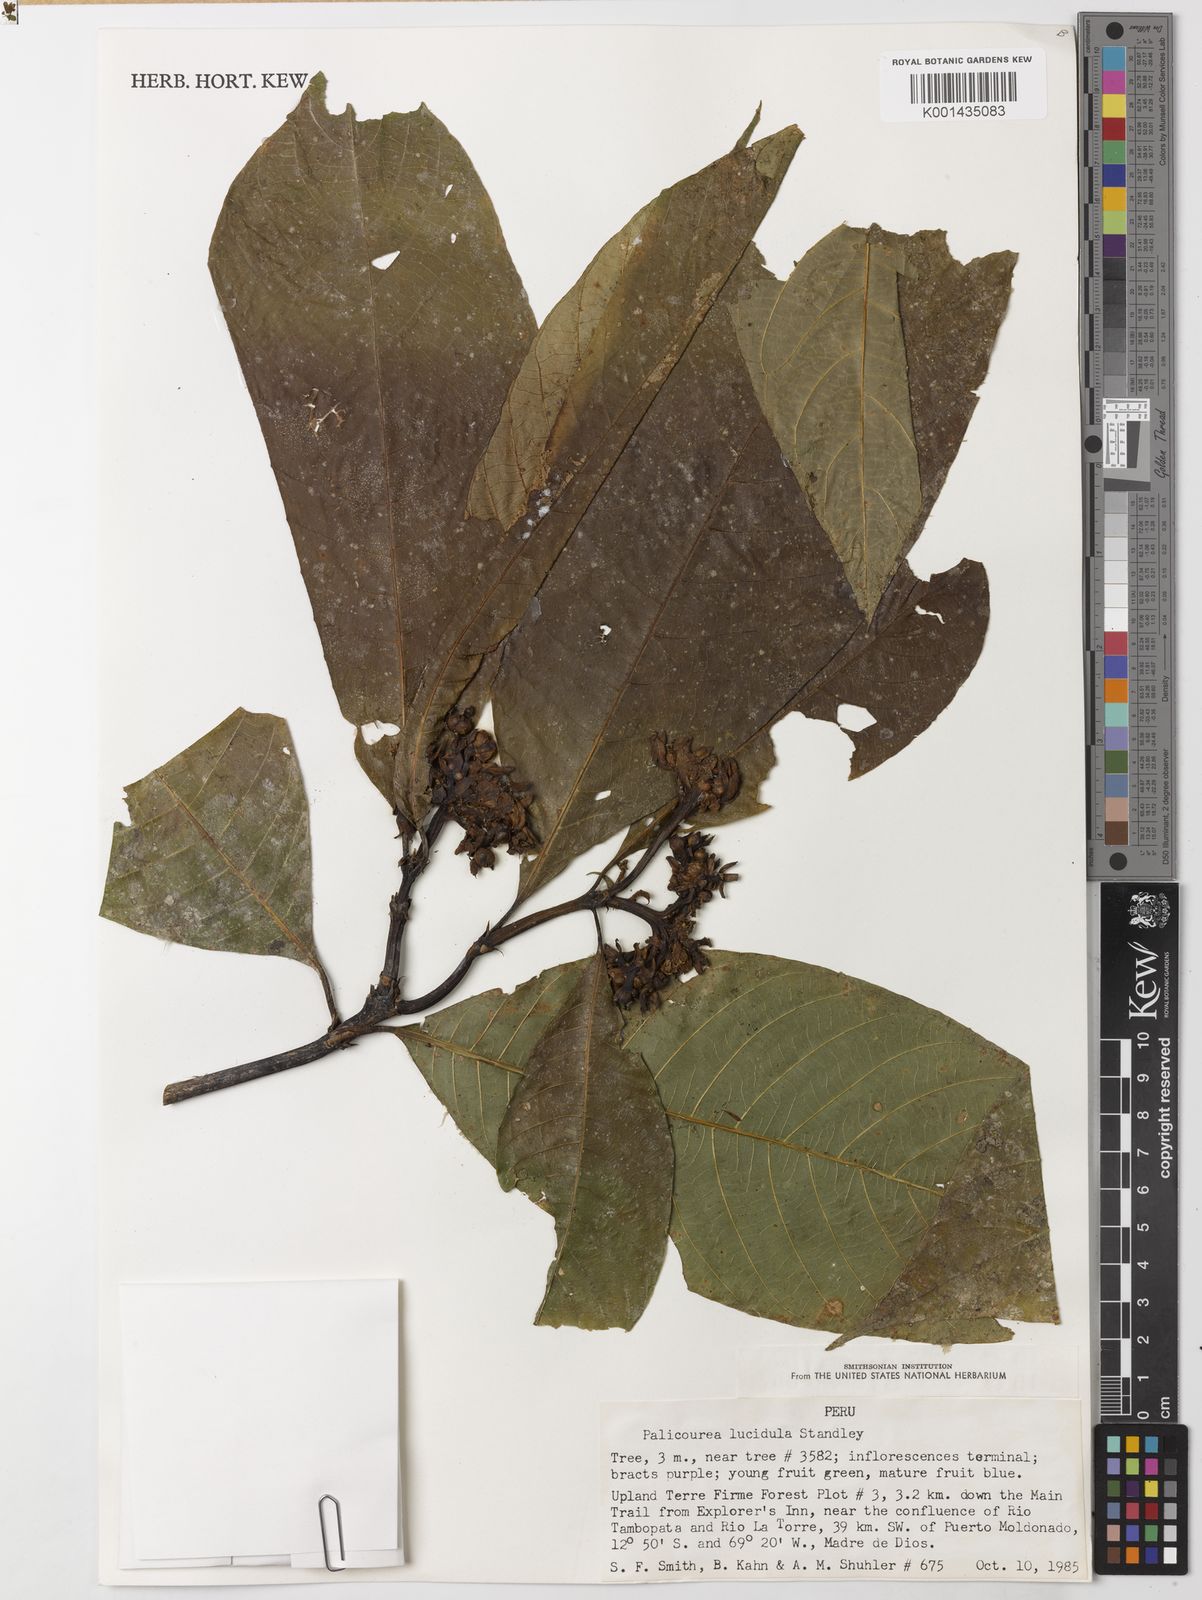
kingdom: Plantae
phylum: Tracheophyta
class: Magnoliopsida
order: Gentianales
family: Rubiaceae
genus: Palicourea
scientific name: Palicourea lucidula
